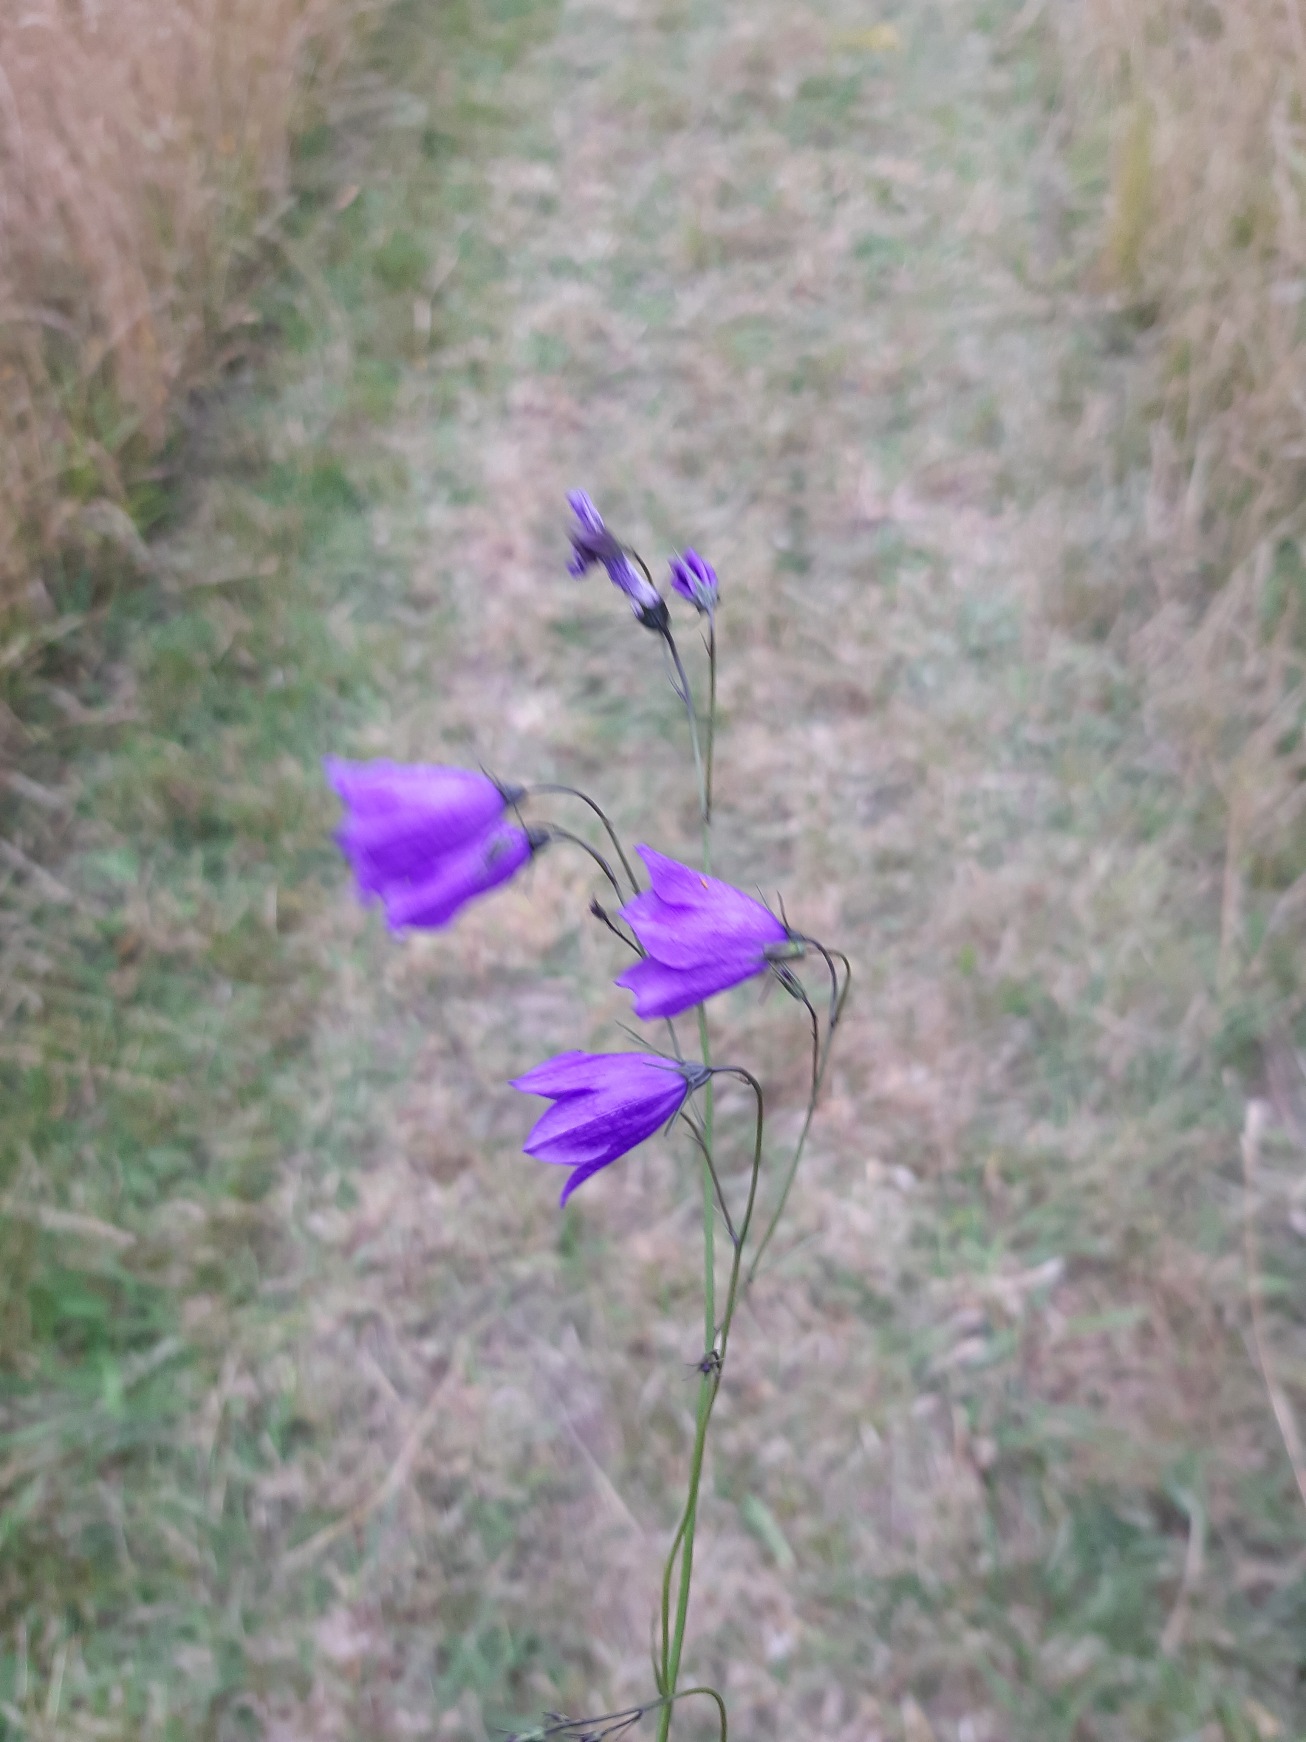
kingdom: Plantae
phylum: Tracheophyta
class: Magnoliopsida
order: Asterales
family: Campanulaceae
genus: Campanula
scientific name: Campanula rotundifolia
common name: Liden klokke
